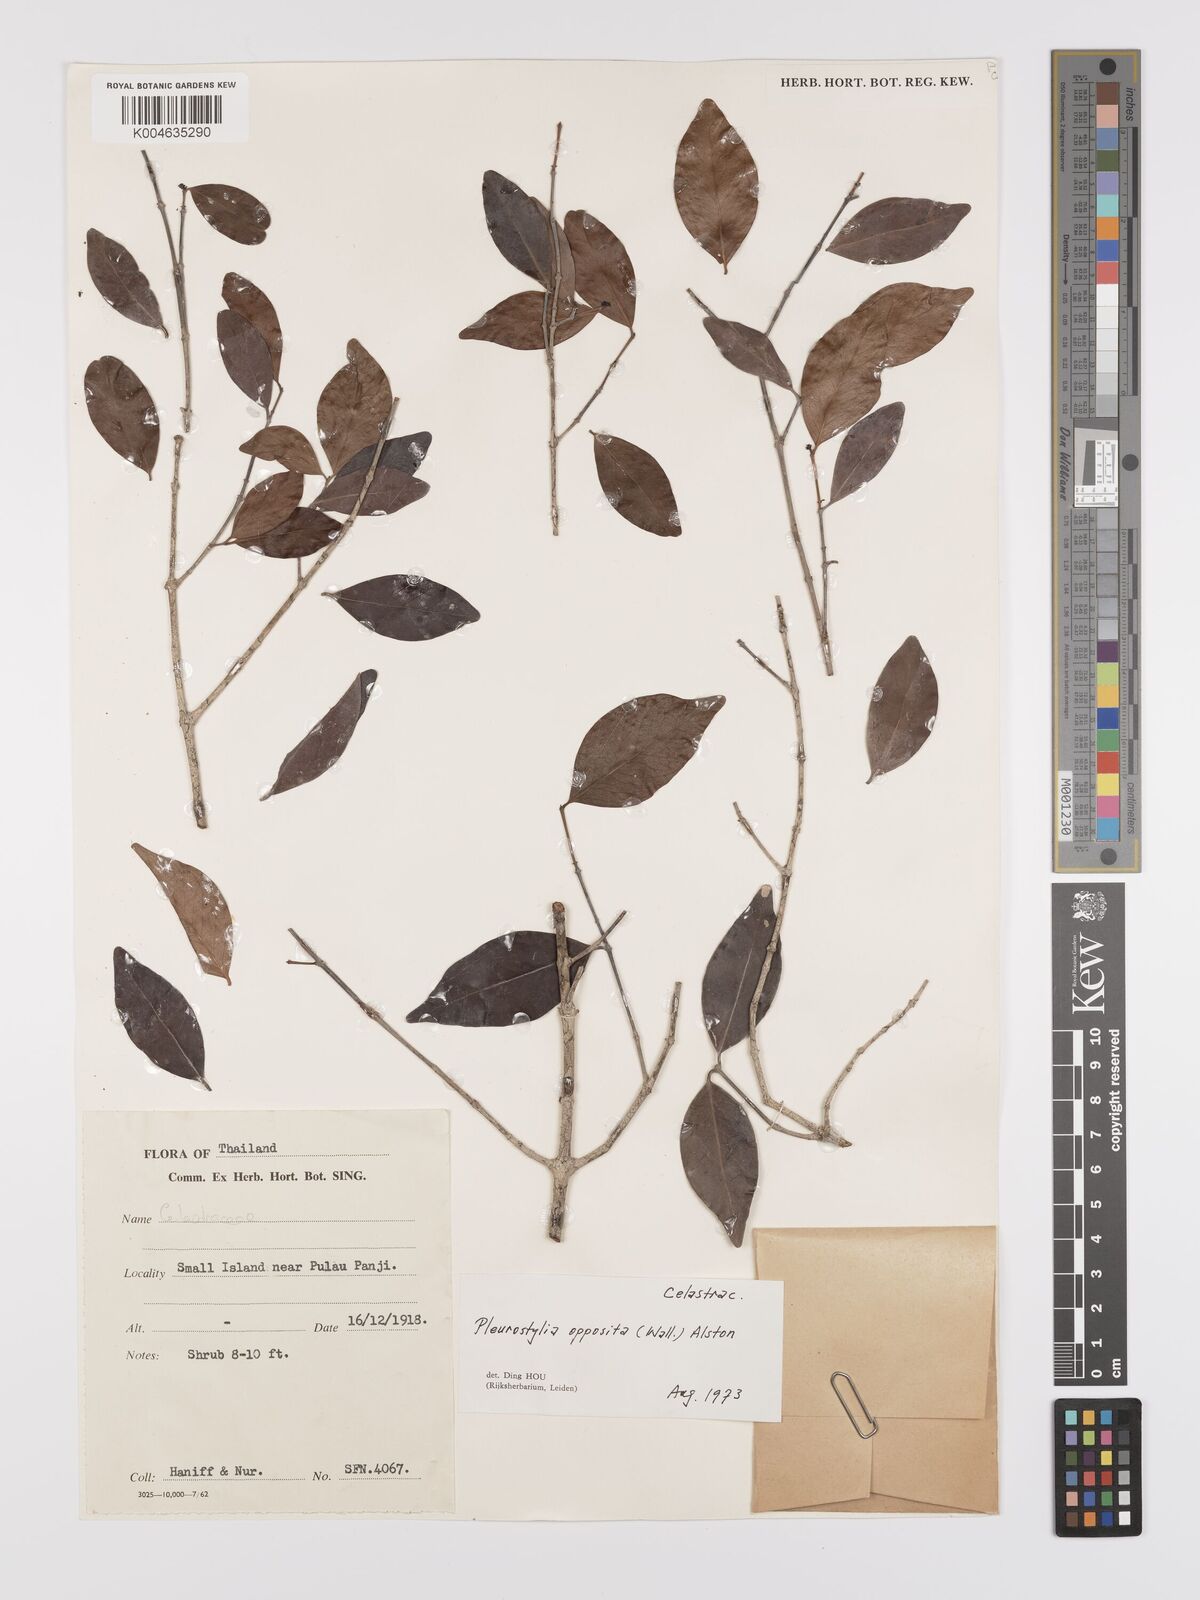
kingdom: Plantae
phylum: Tracheophyta
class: Magnoliopsida
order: Celastrales
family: Celastraceae
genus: Pleurostylia
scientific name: Pleurostylia opposita
